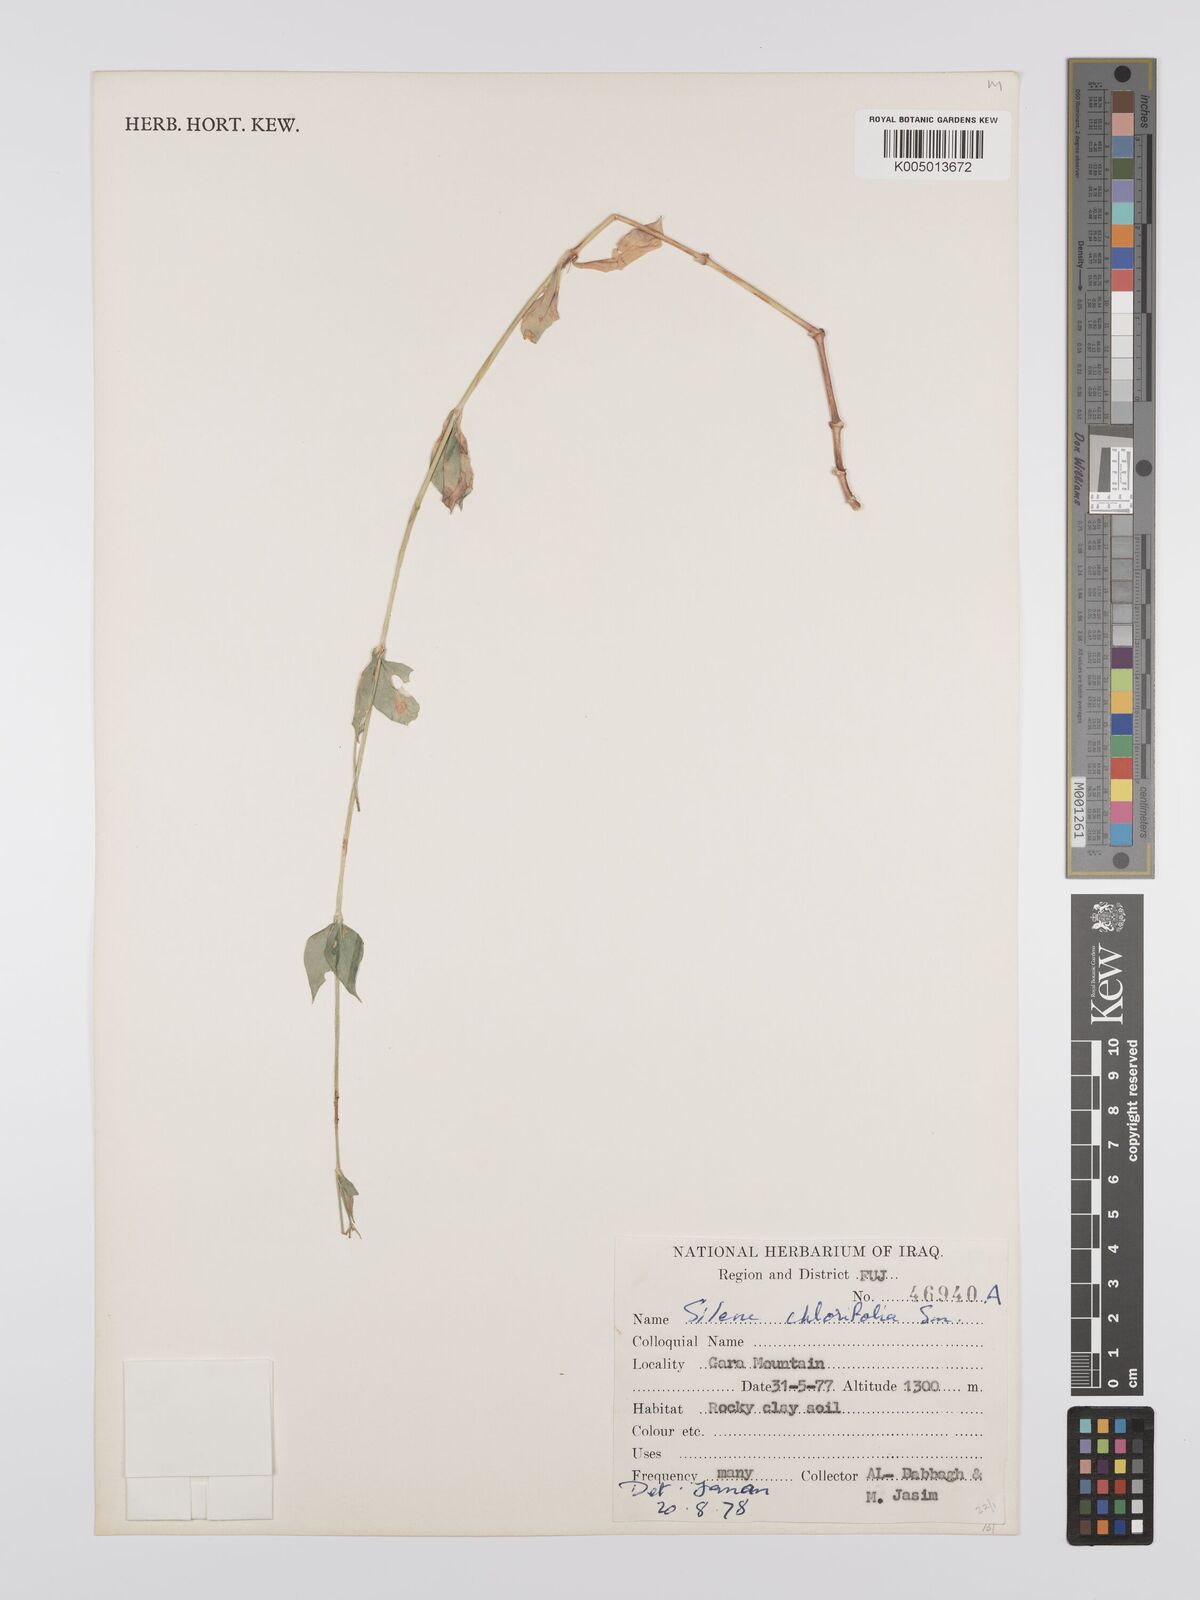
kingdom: Plantae
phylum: Tracheophyta
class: Magnoliopsida
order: Caryophyllales
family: Caryophyllaceae
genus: Silene
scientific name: Silene chlorifolia
